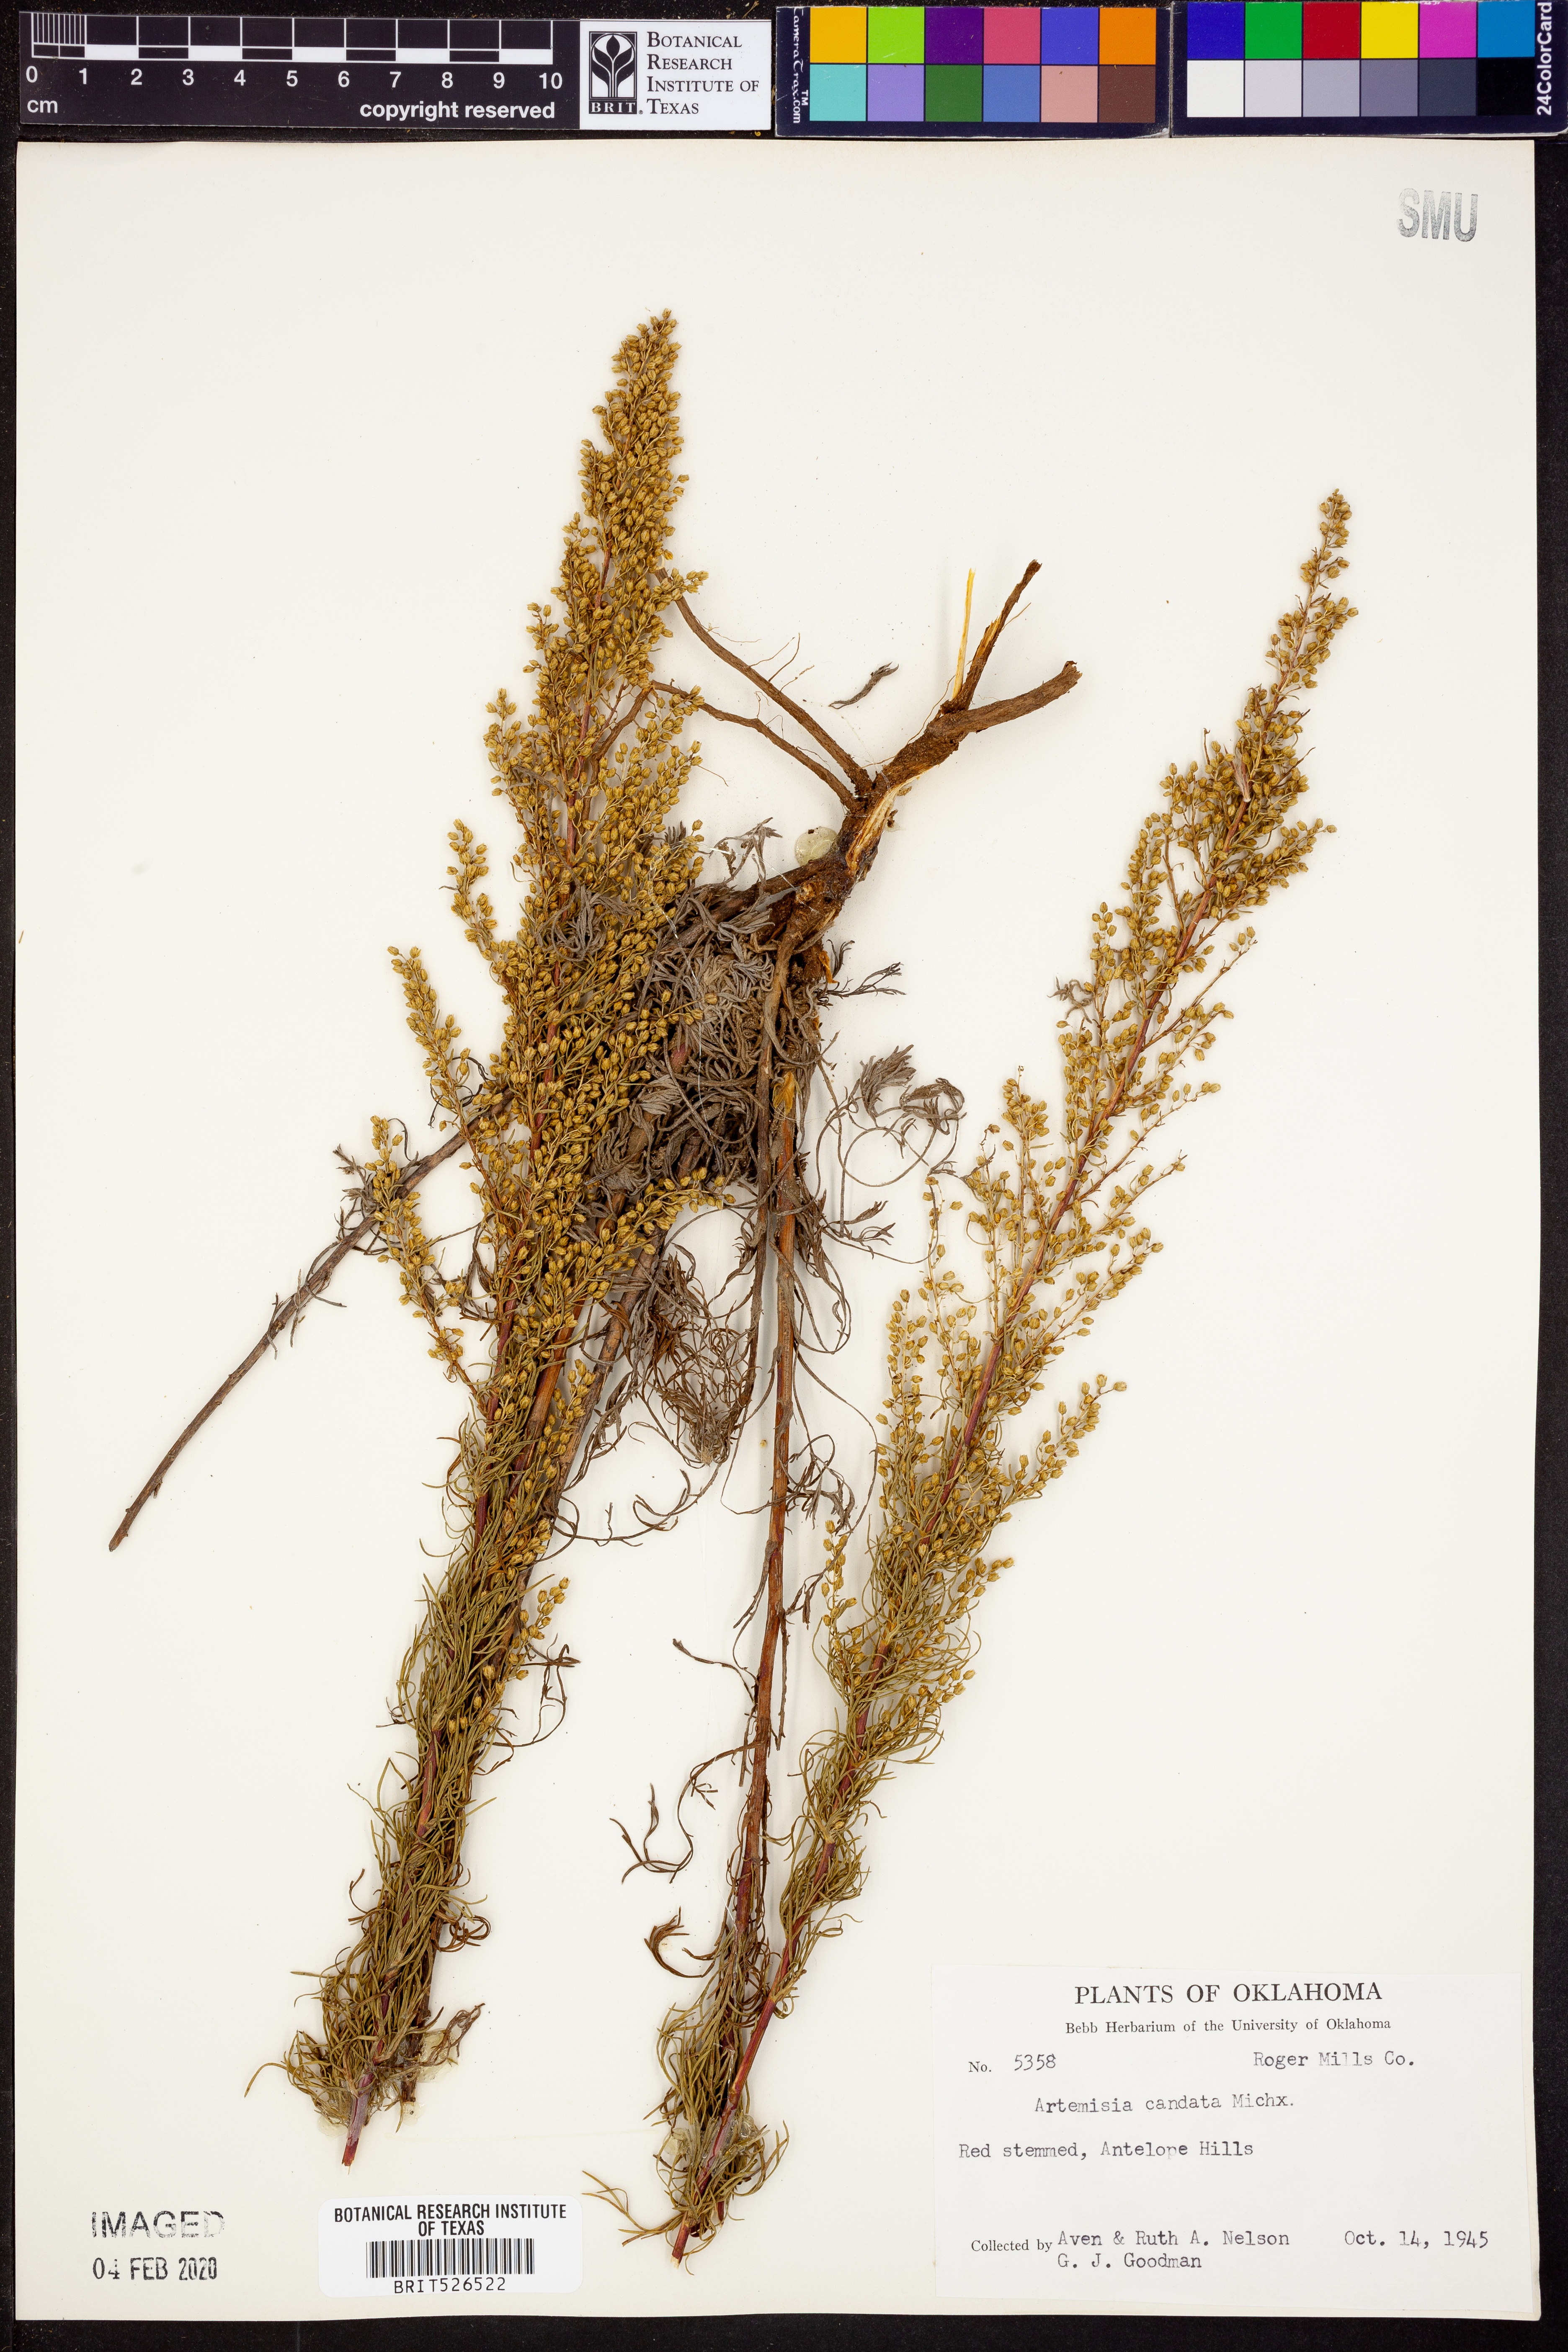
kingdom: Plantae
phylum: Tracheophyta
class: Magnoliopsida
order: Asterales
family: Asteraceae
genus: Artemisia
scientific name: Artemisia campestris
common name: Field wormwood
